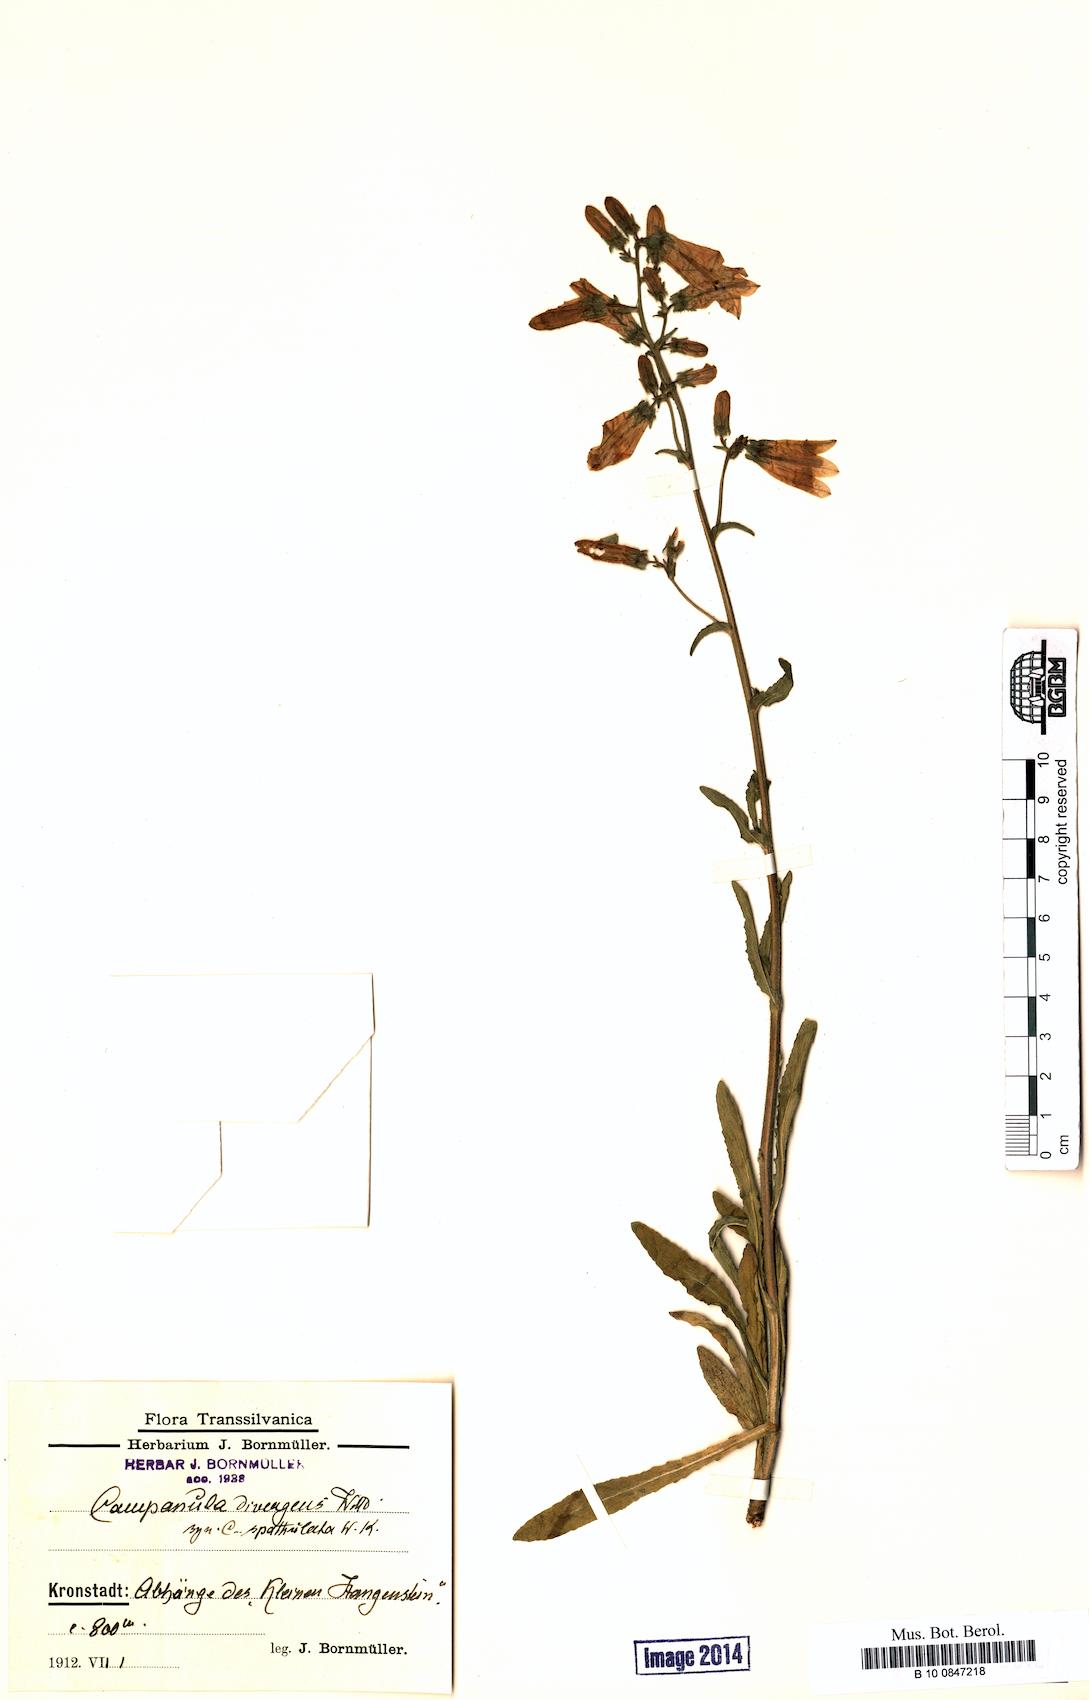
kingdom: Plantae
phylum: Tracheophyta
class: Magnoliopsida
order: Asterales
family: Campanulaceae
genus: Campanula
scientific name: Campanula sibirica
